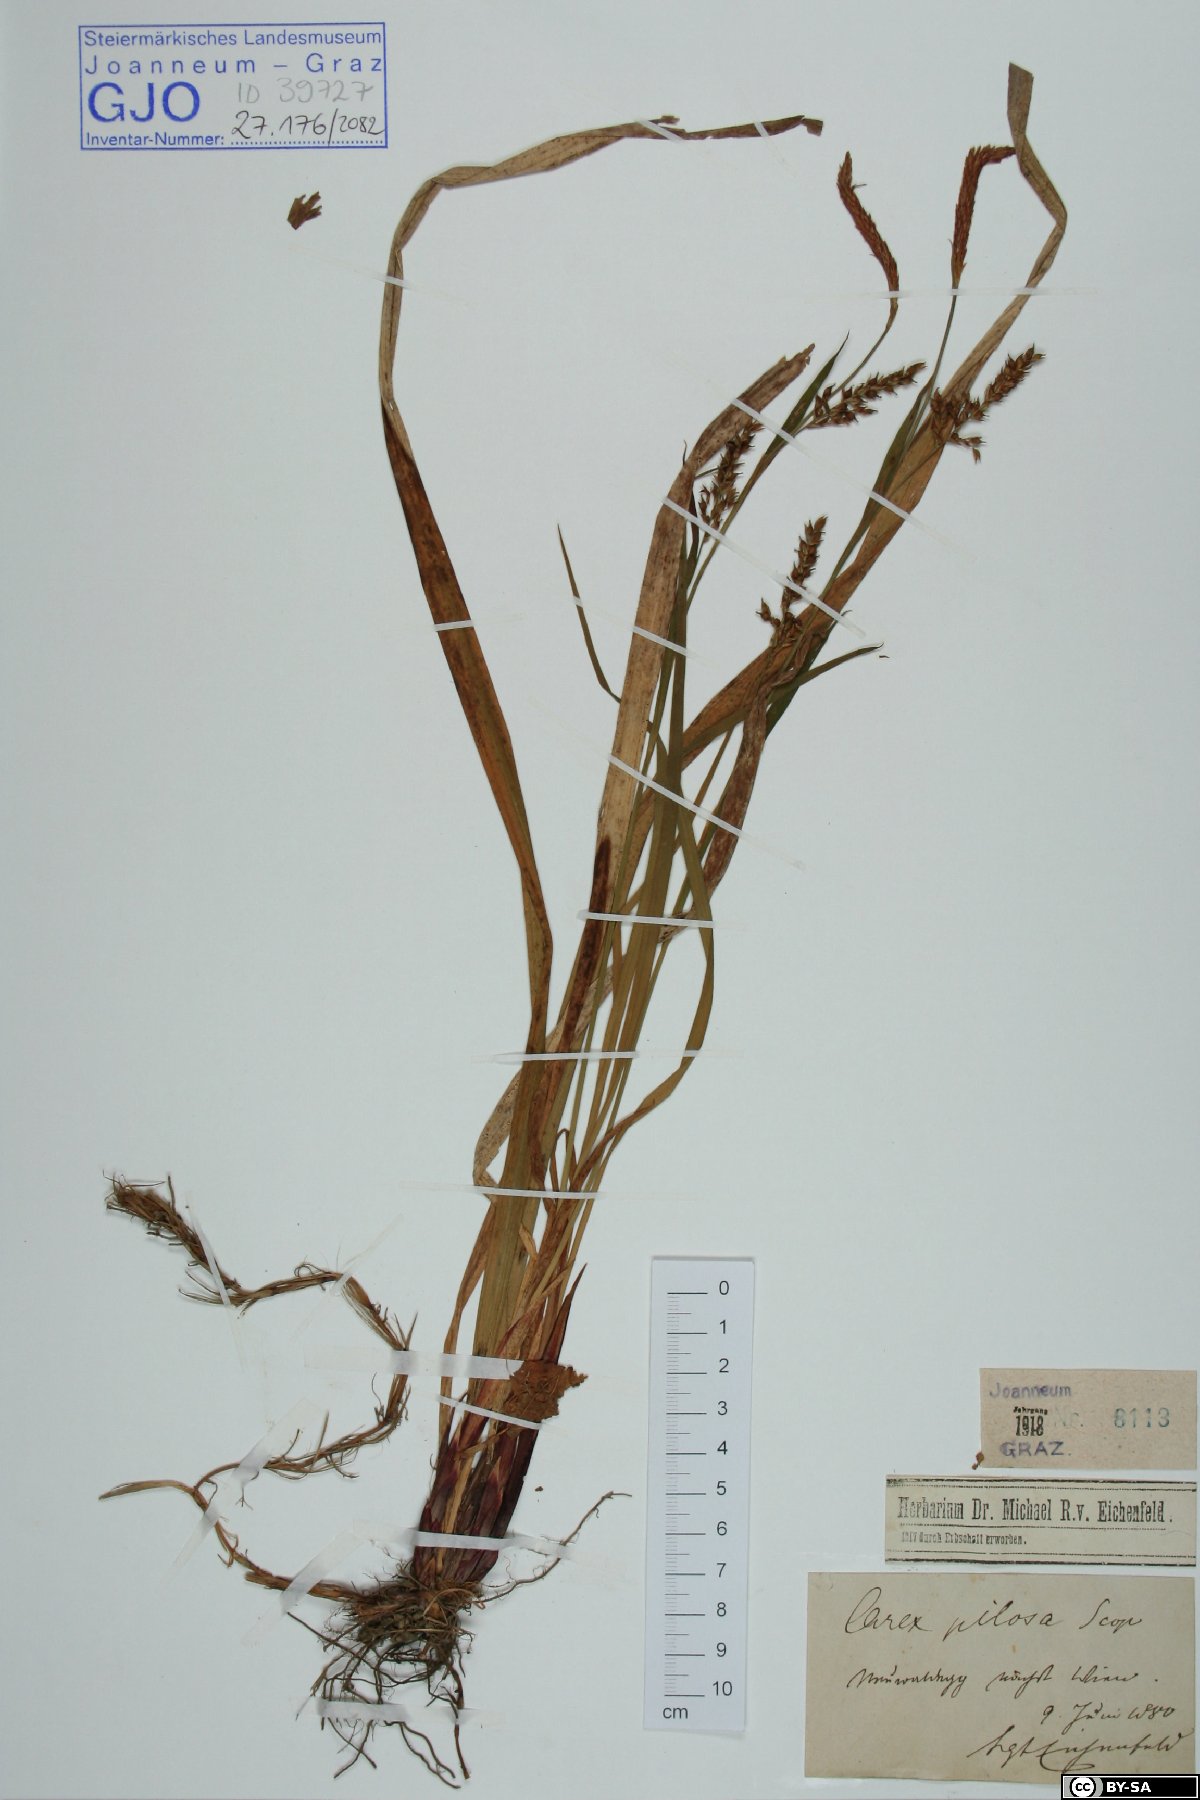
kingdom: Plantae
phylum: Tracheophyta
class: Liliopsida
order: Poales
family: Cyperaceae
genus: Carex
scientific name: Carex pilosa
